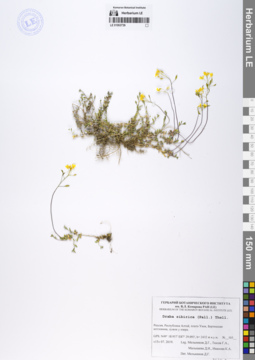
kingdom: Plantae
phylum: Tracheophyta
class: Magnoliopsida
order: Brassicales
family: Brassicaceae
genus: Draba
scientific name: Draba sibirica
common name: Siberian draba
